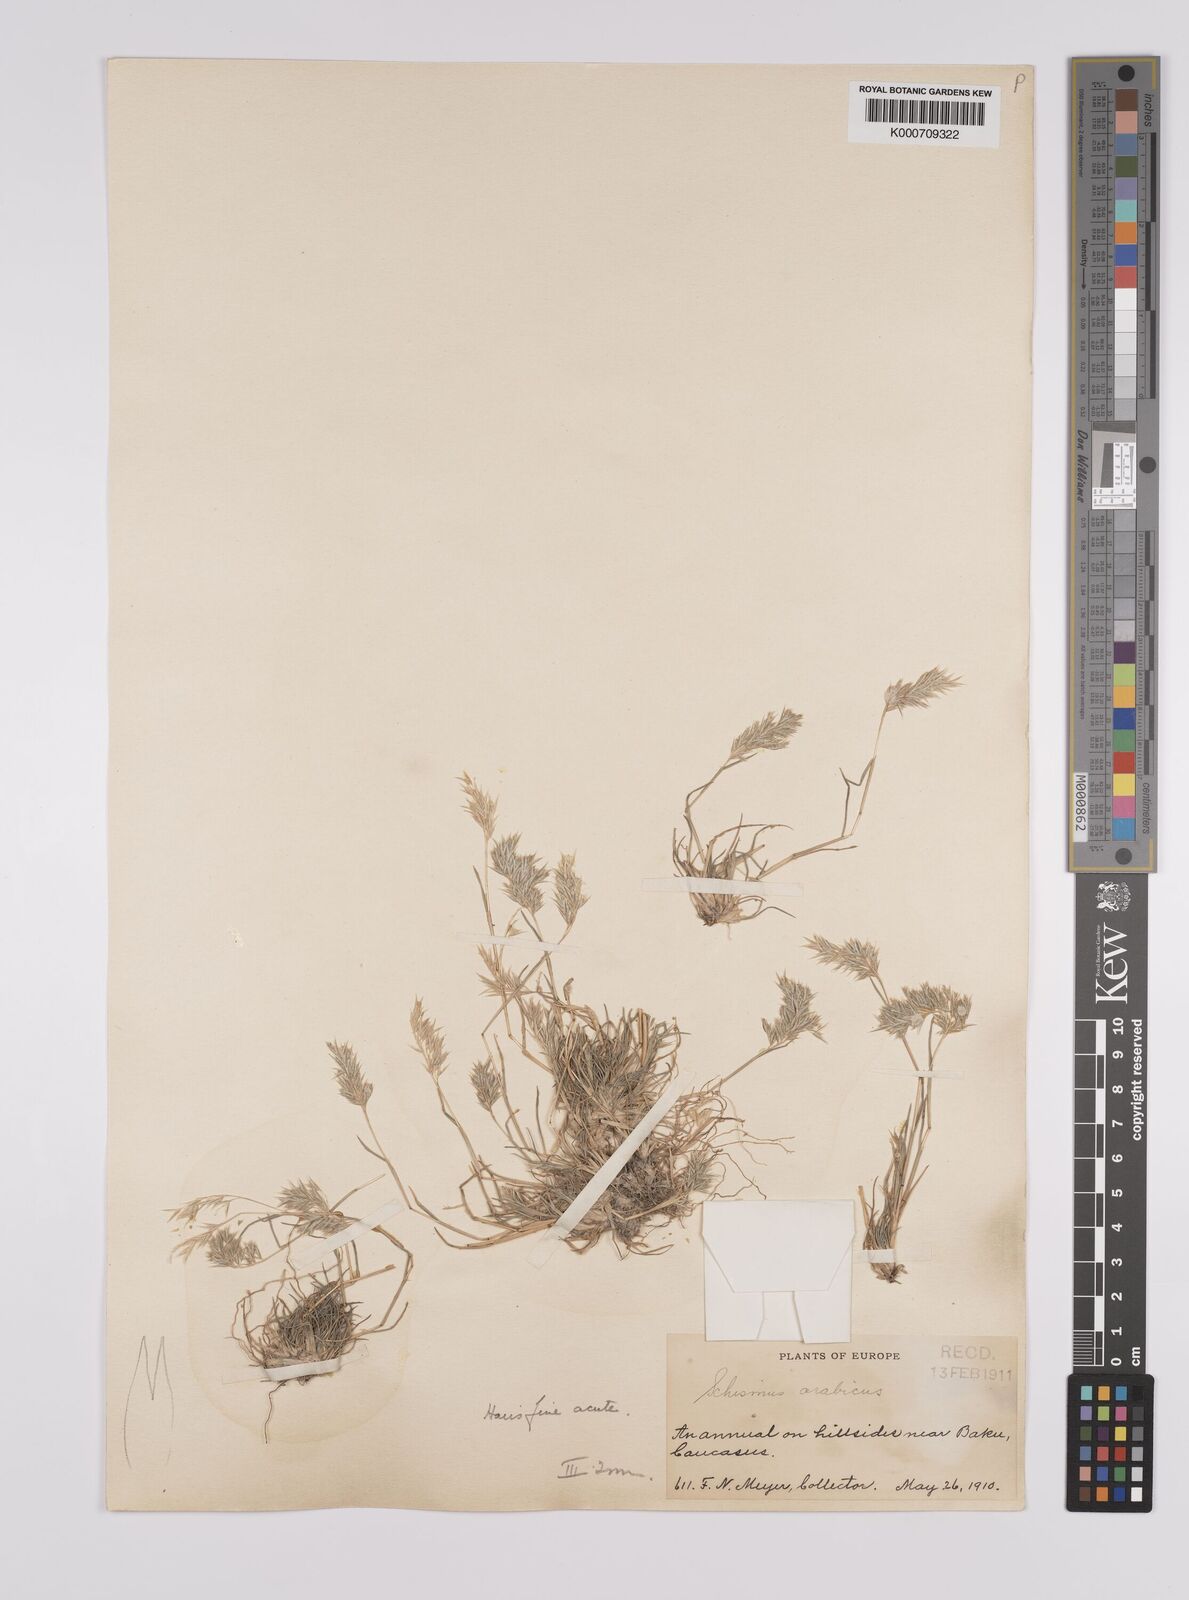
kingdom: Plantae
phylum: Tracheophyta
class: Liliopsida
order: Poales
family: Poaceae
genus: Schismus
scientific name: Schismus arabicus
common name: Arabian schismus
